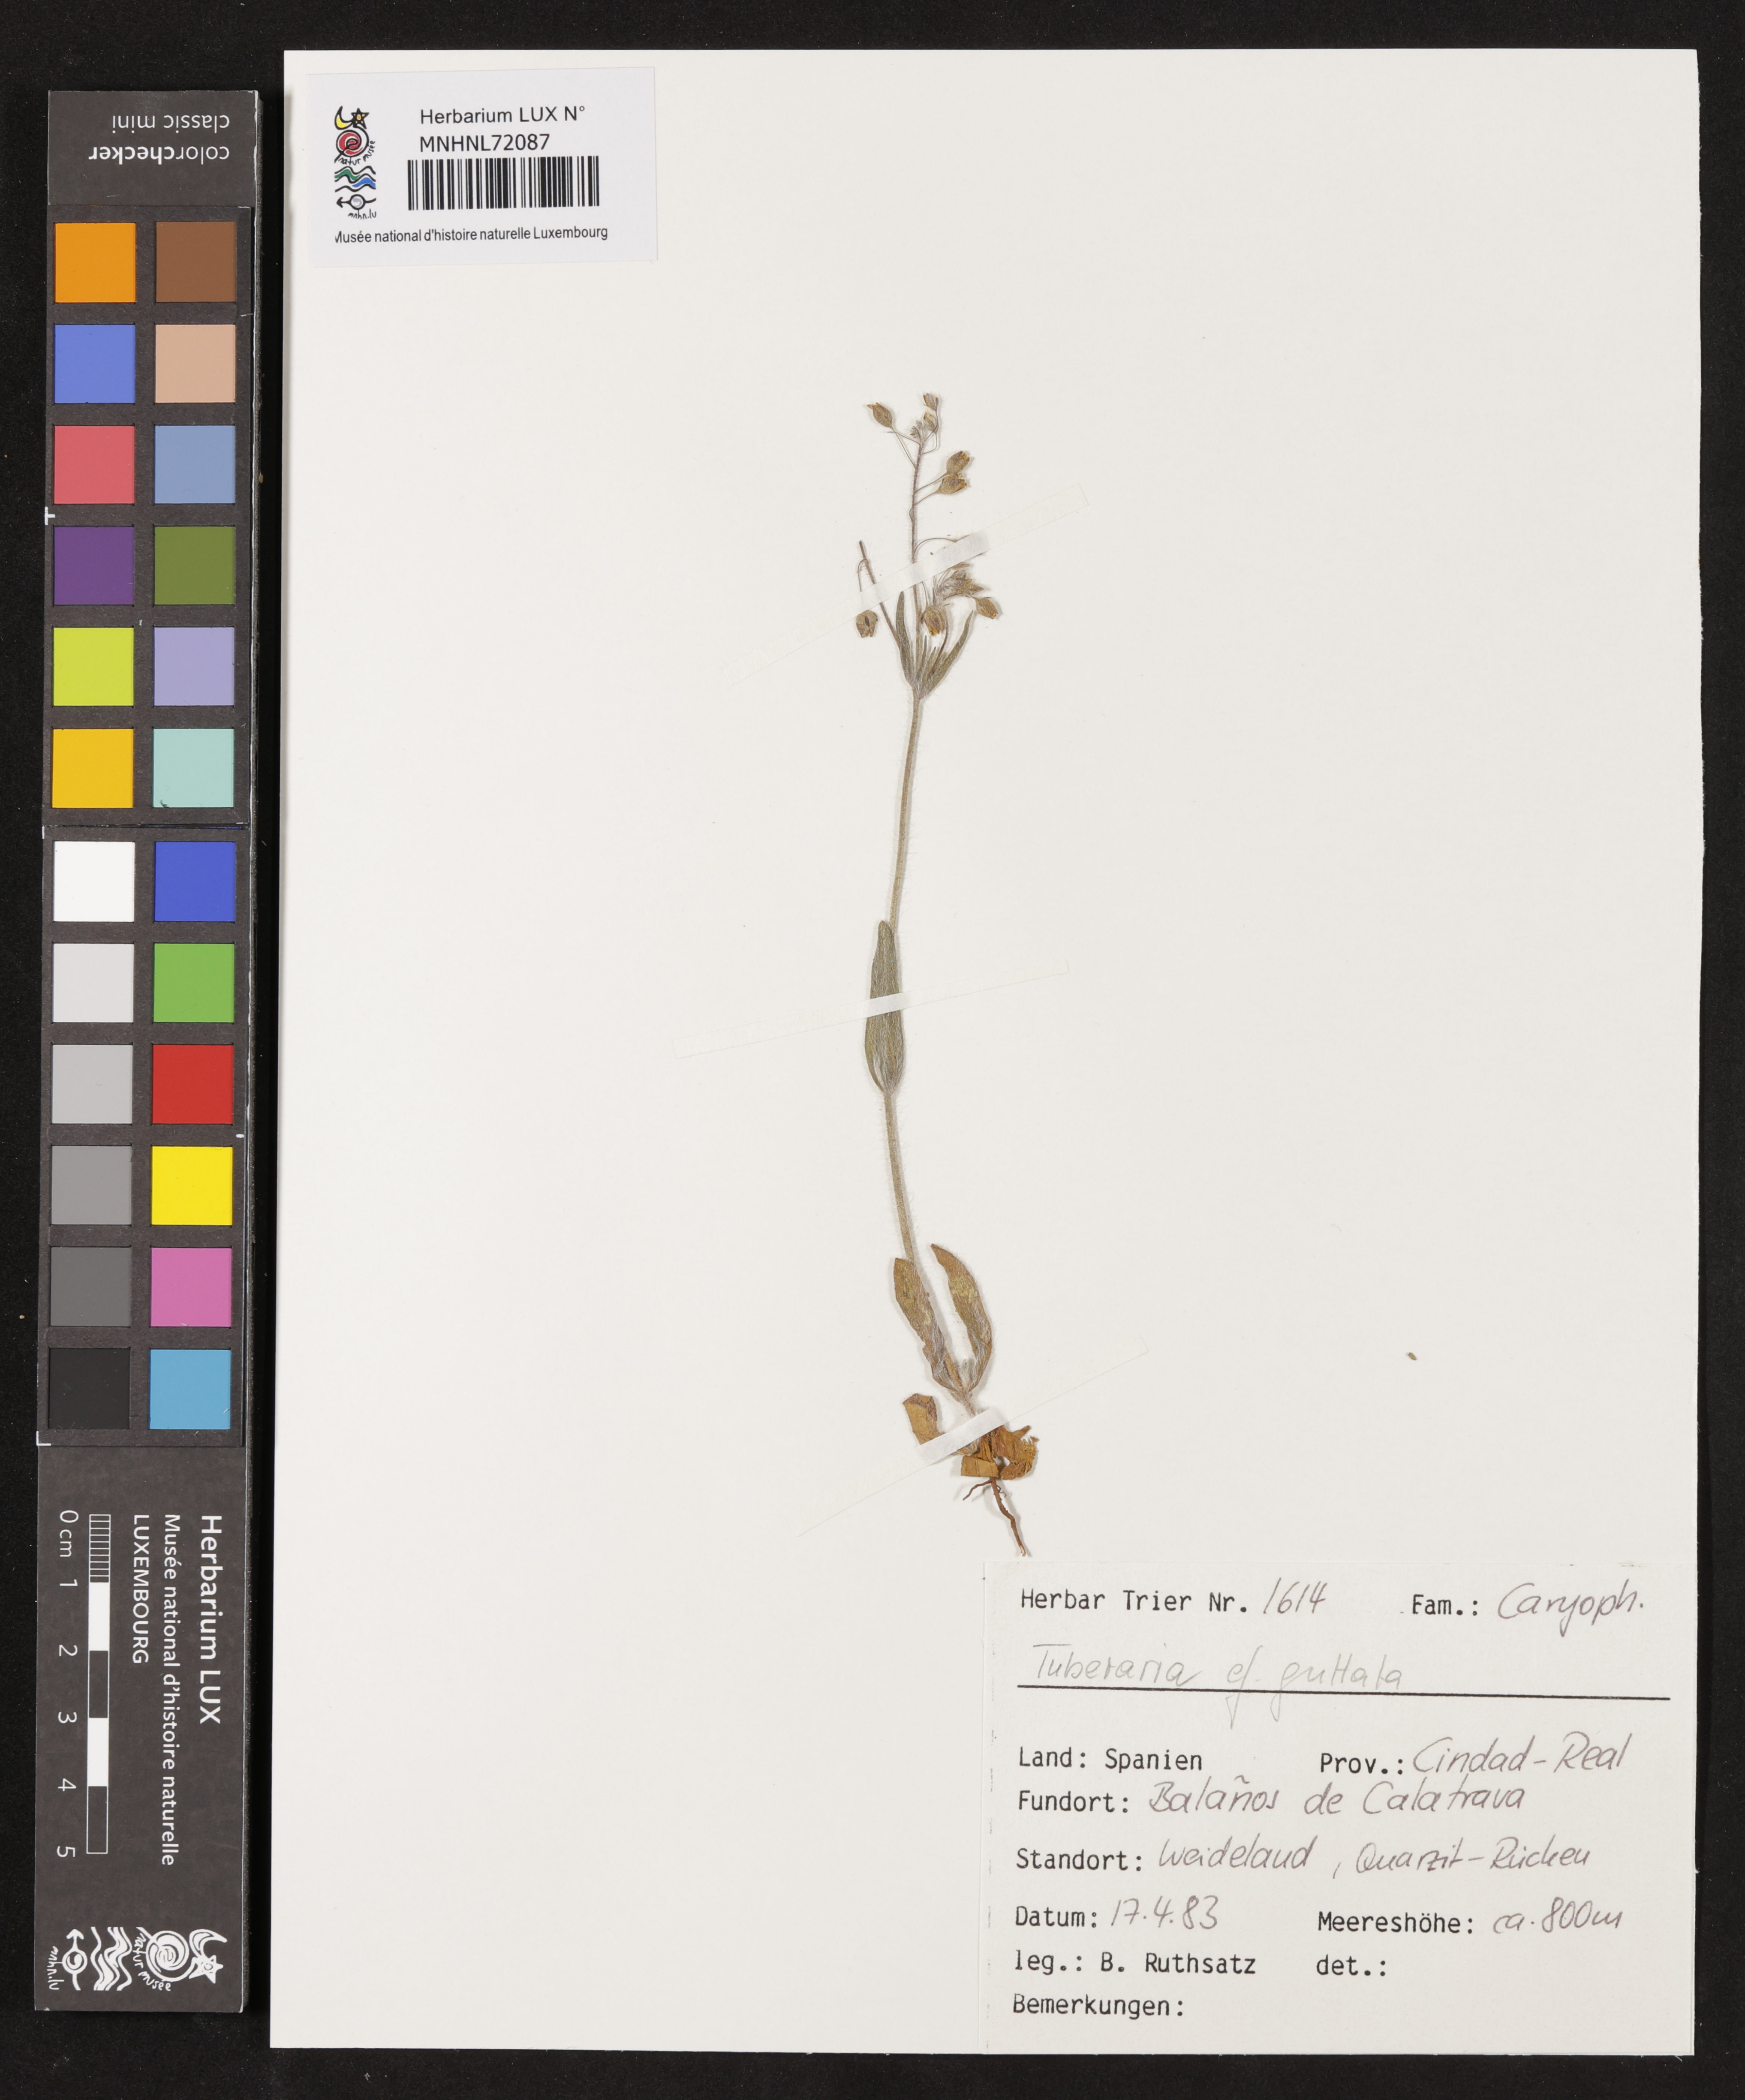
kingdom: Plantae
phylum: Tracheophyta
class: Magnoliopsida
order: Malvales
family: Cistaceae
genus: Tuberaria
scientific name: Tuberaria guttata
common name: Spotted rock-rose
